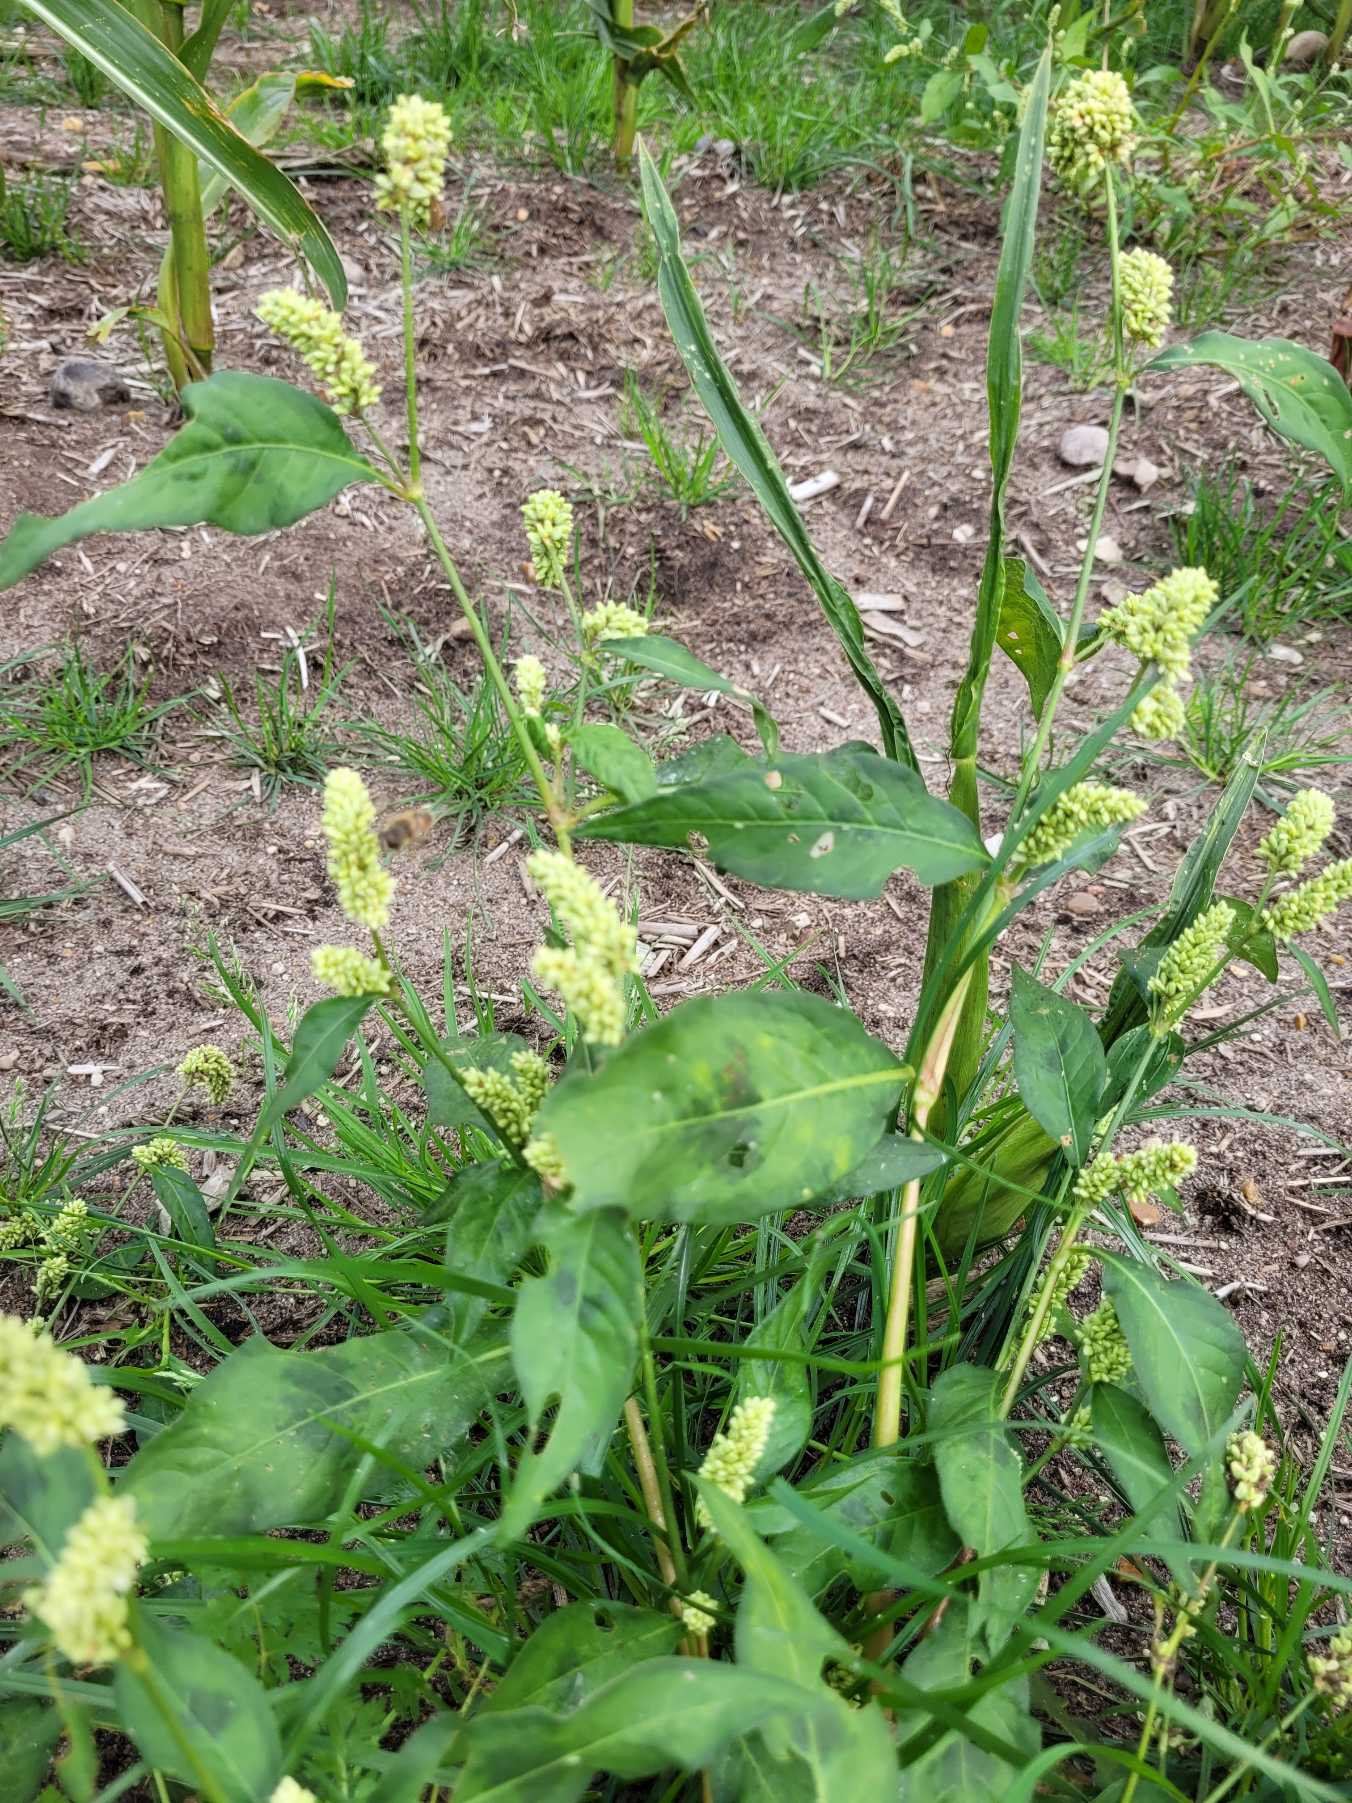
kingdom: Plantae
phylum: Tracheophyta
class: Magnoliopsida
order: Caryophyllales
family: Polygonaceae
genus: Persicaria
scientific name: Persicaria lapathifolia
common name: Bleg pileurt
